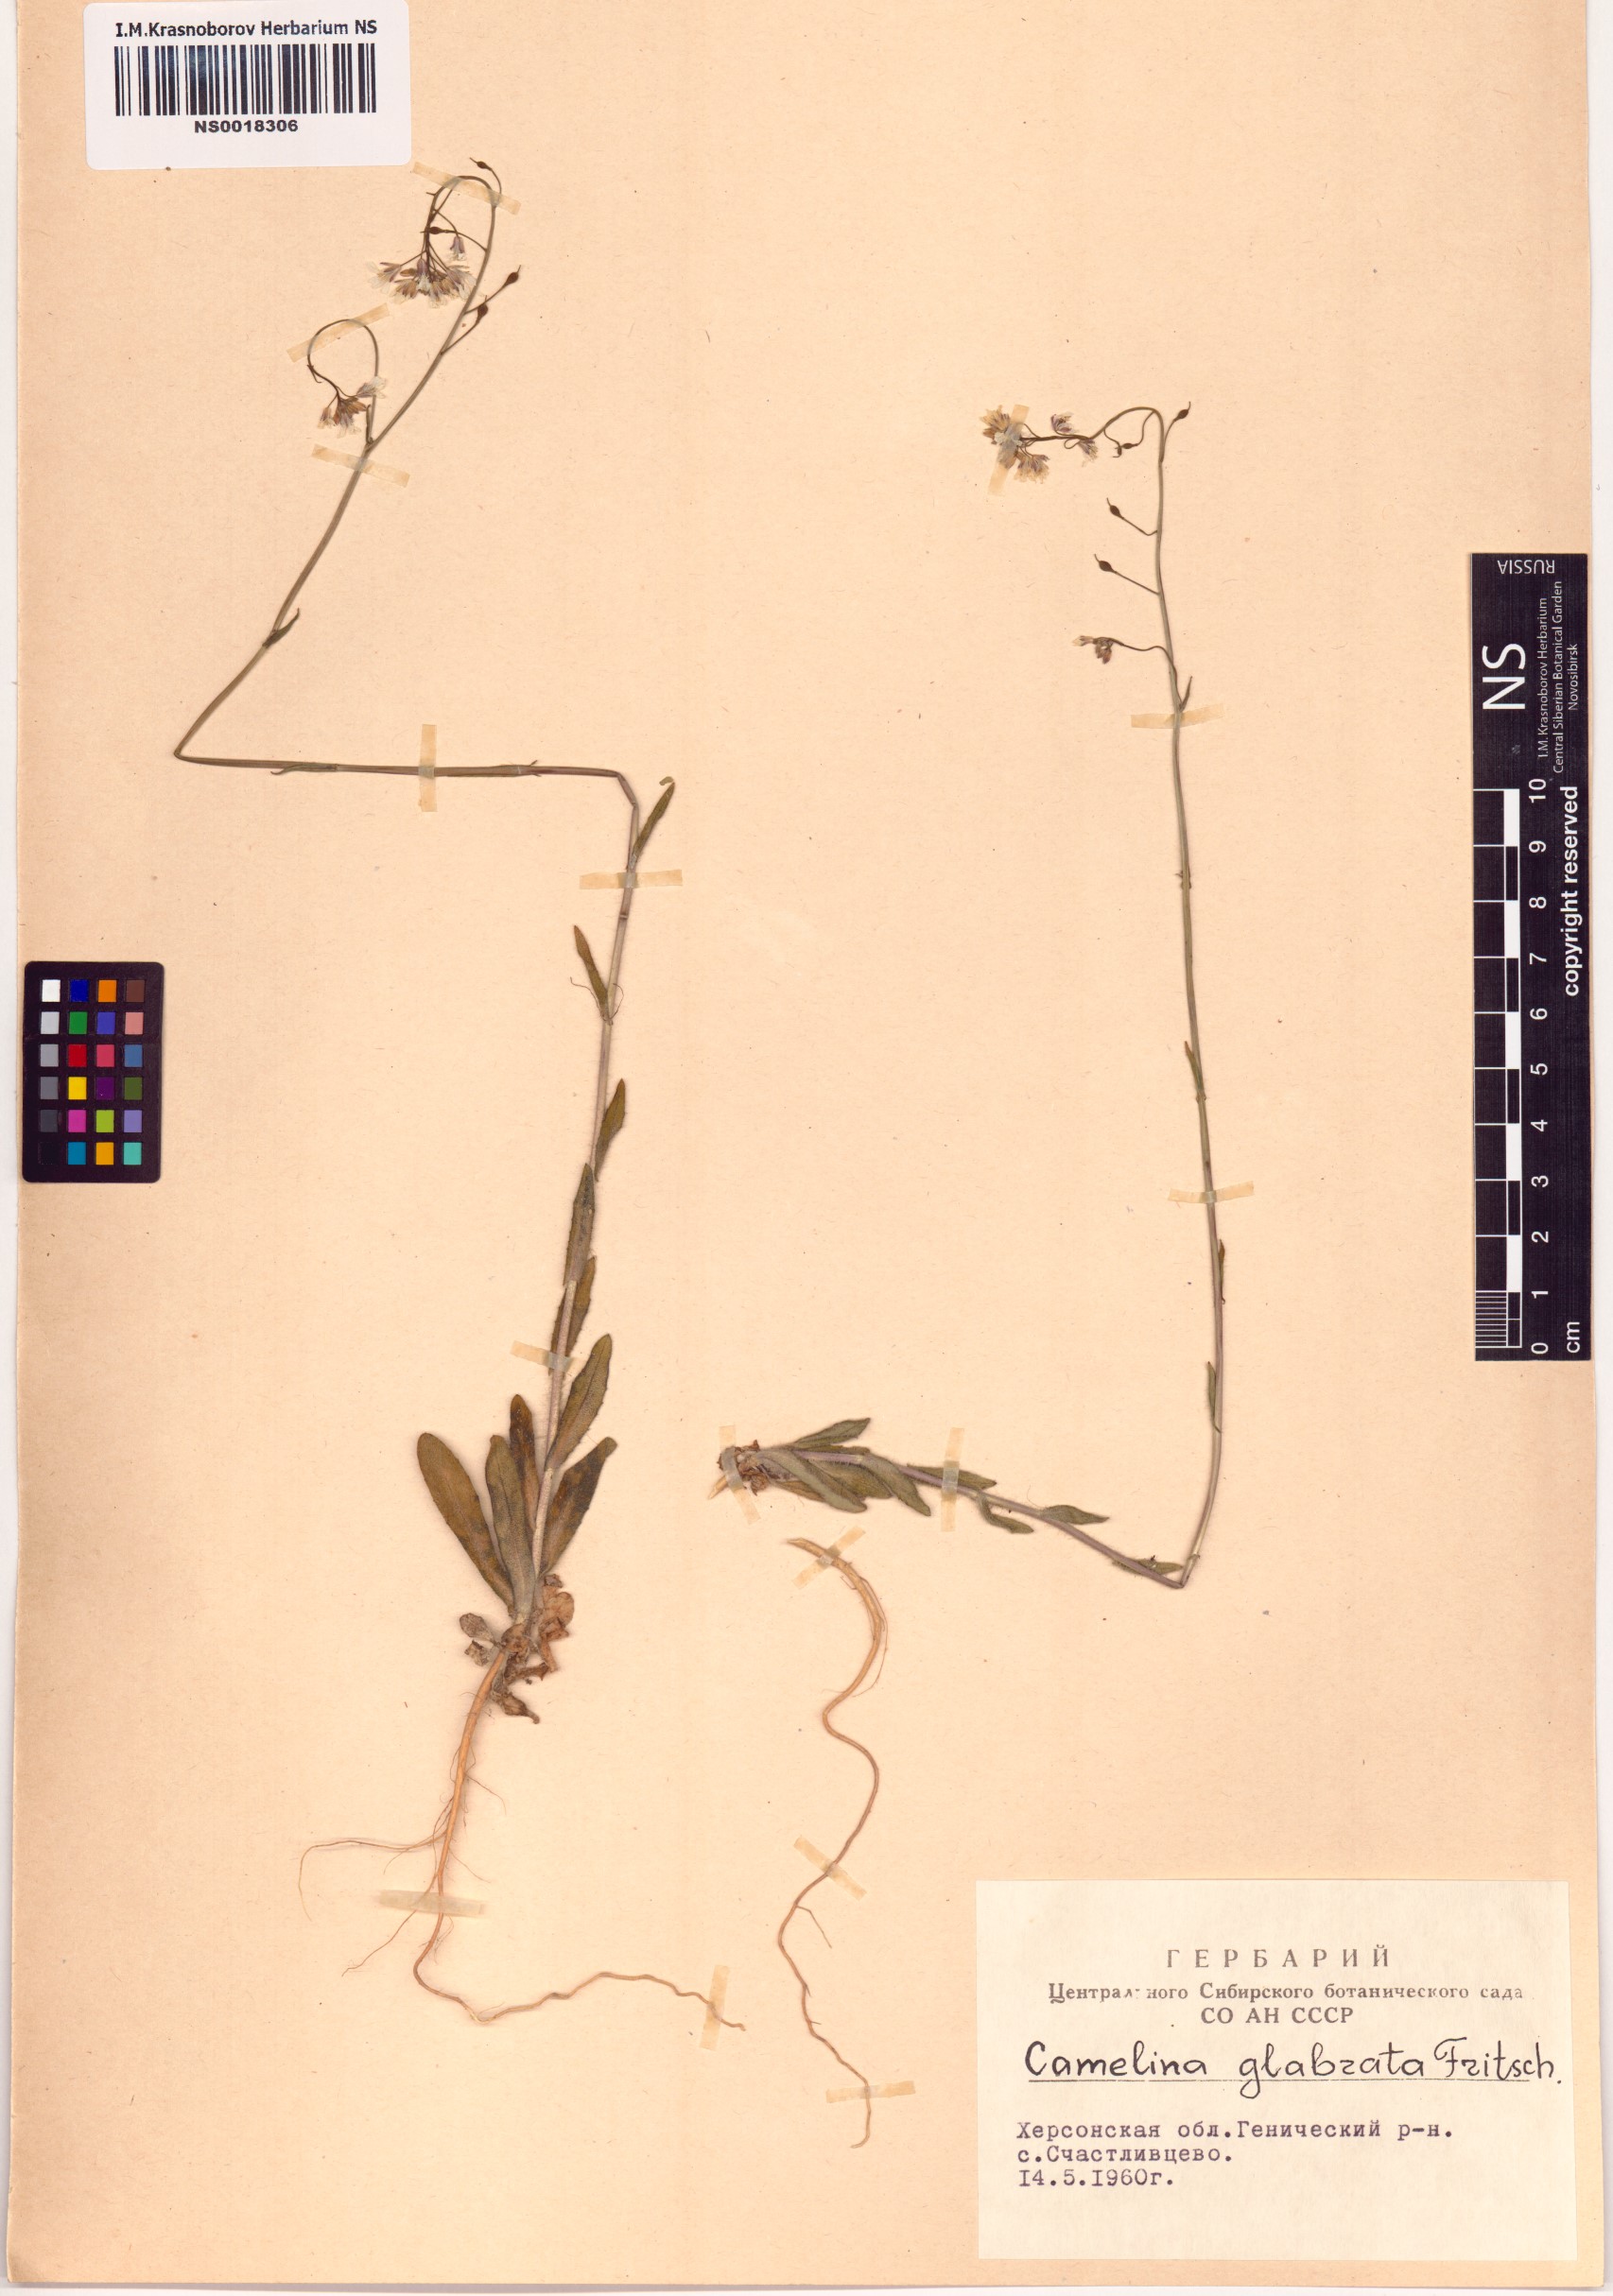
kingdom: Plantae
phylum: Tracheophyta
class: Magnoliopsida
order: Brassicales
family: Brassicaceae
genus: Camelina
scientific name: Camelina sativa
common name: Gold-of-pleasure
